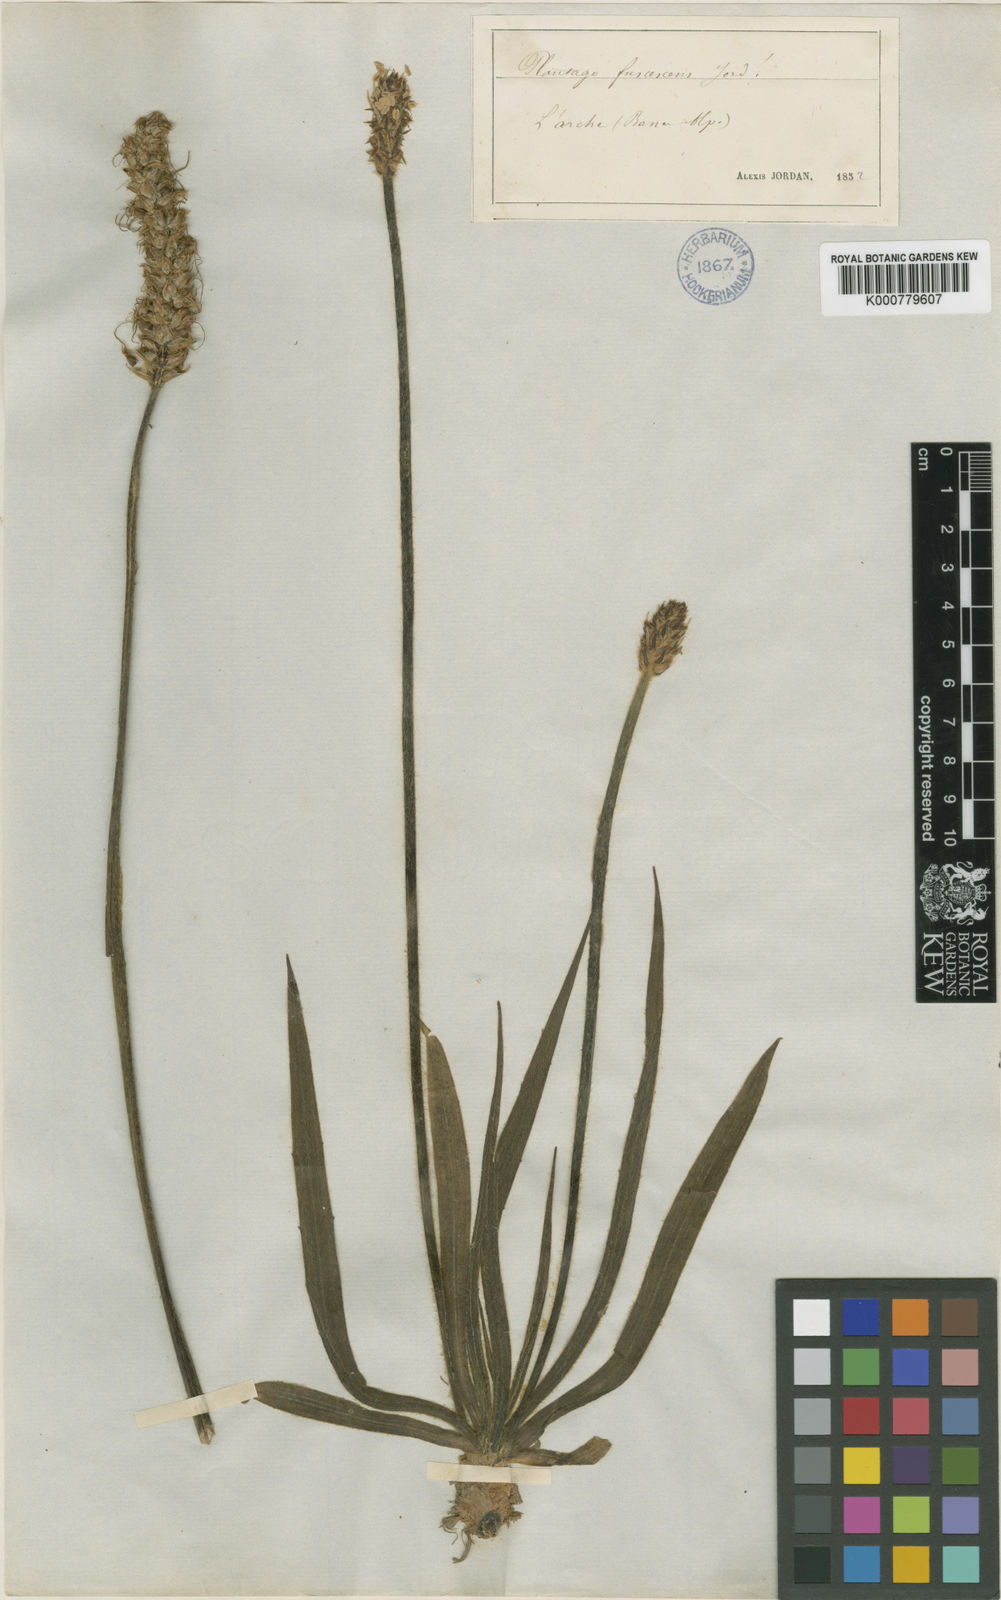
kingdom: Plantae
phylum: Tracheophyta
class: Magnoliopsida
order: Lamiales
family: Plantaginaceae
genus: Plantago
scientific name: Plantago atrata
